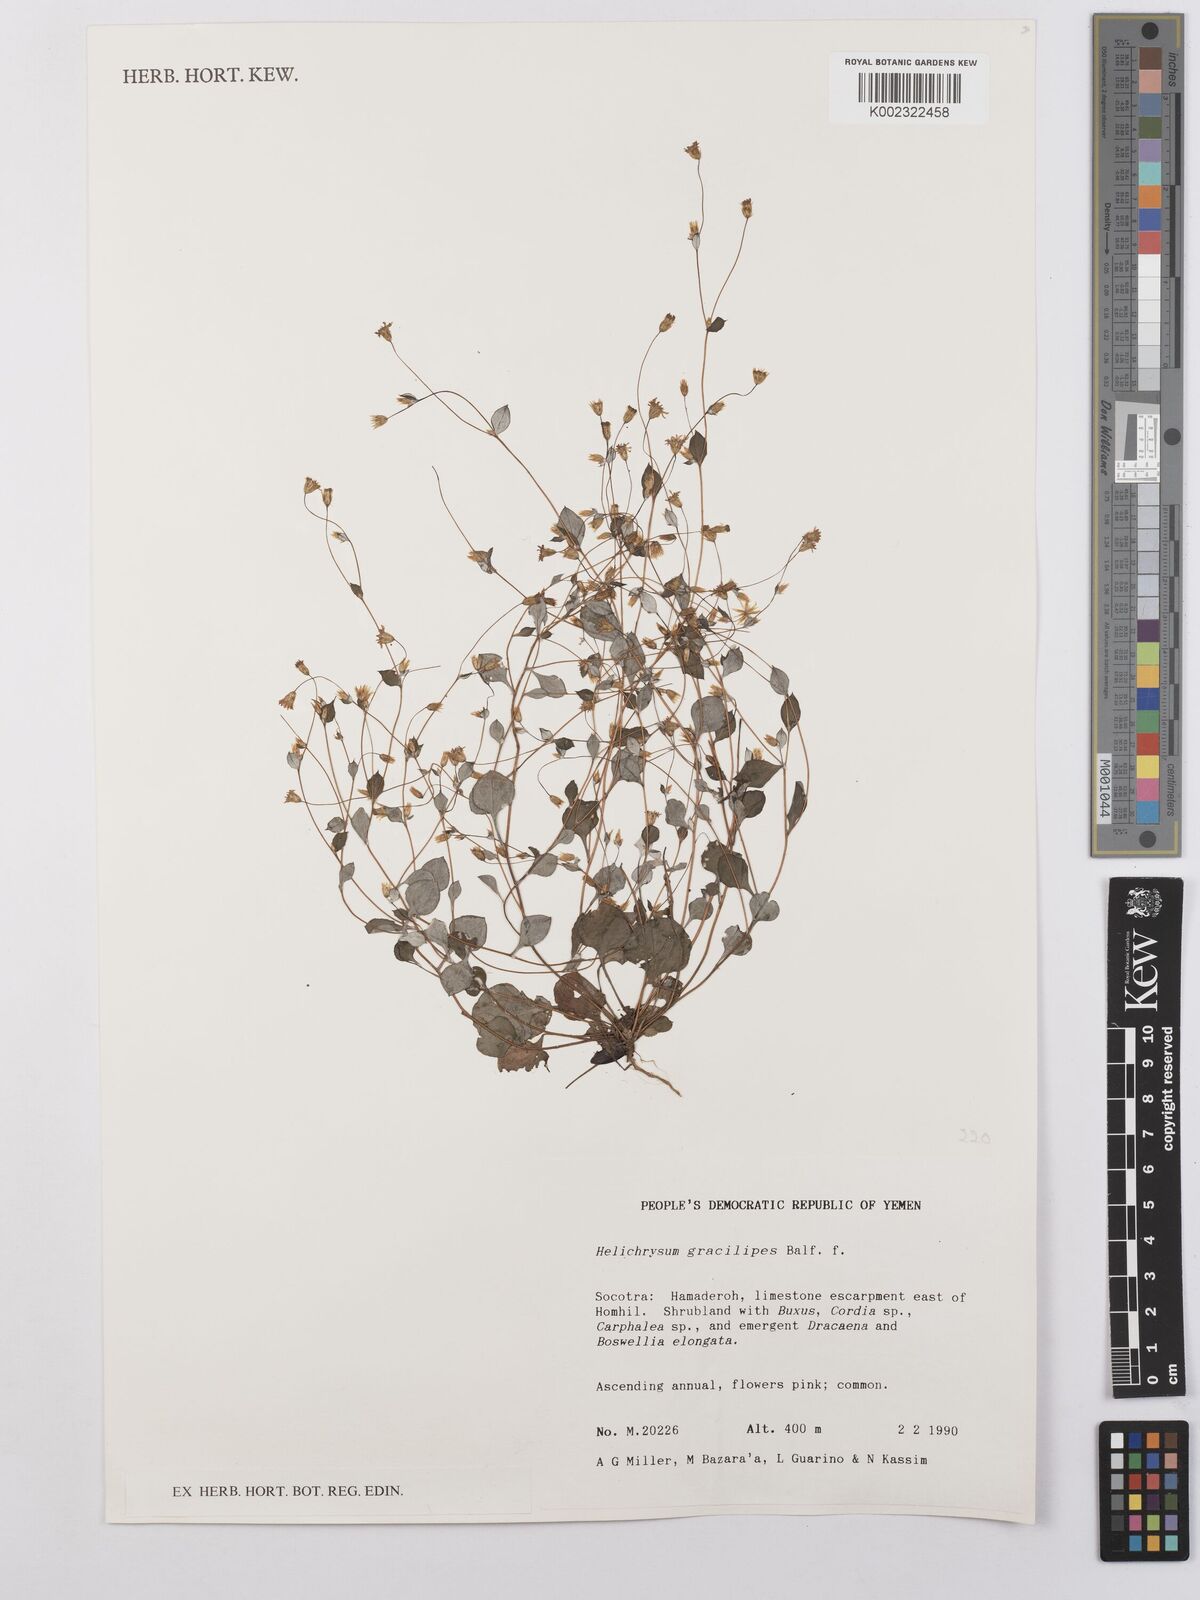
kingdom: Plantae
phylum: Tracheophyta
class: Magnoliopsida
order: Asterales
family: Asteraceae
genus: Libinhania
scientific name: Libinhania gracilipes
